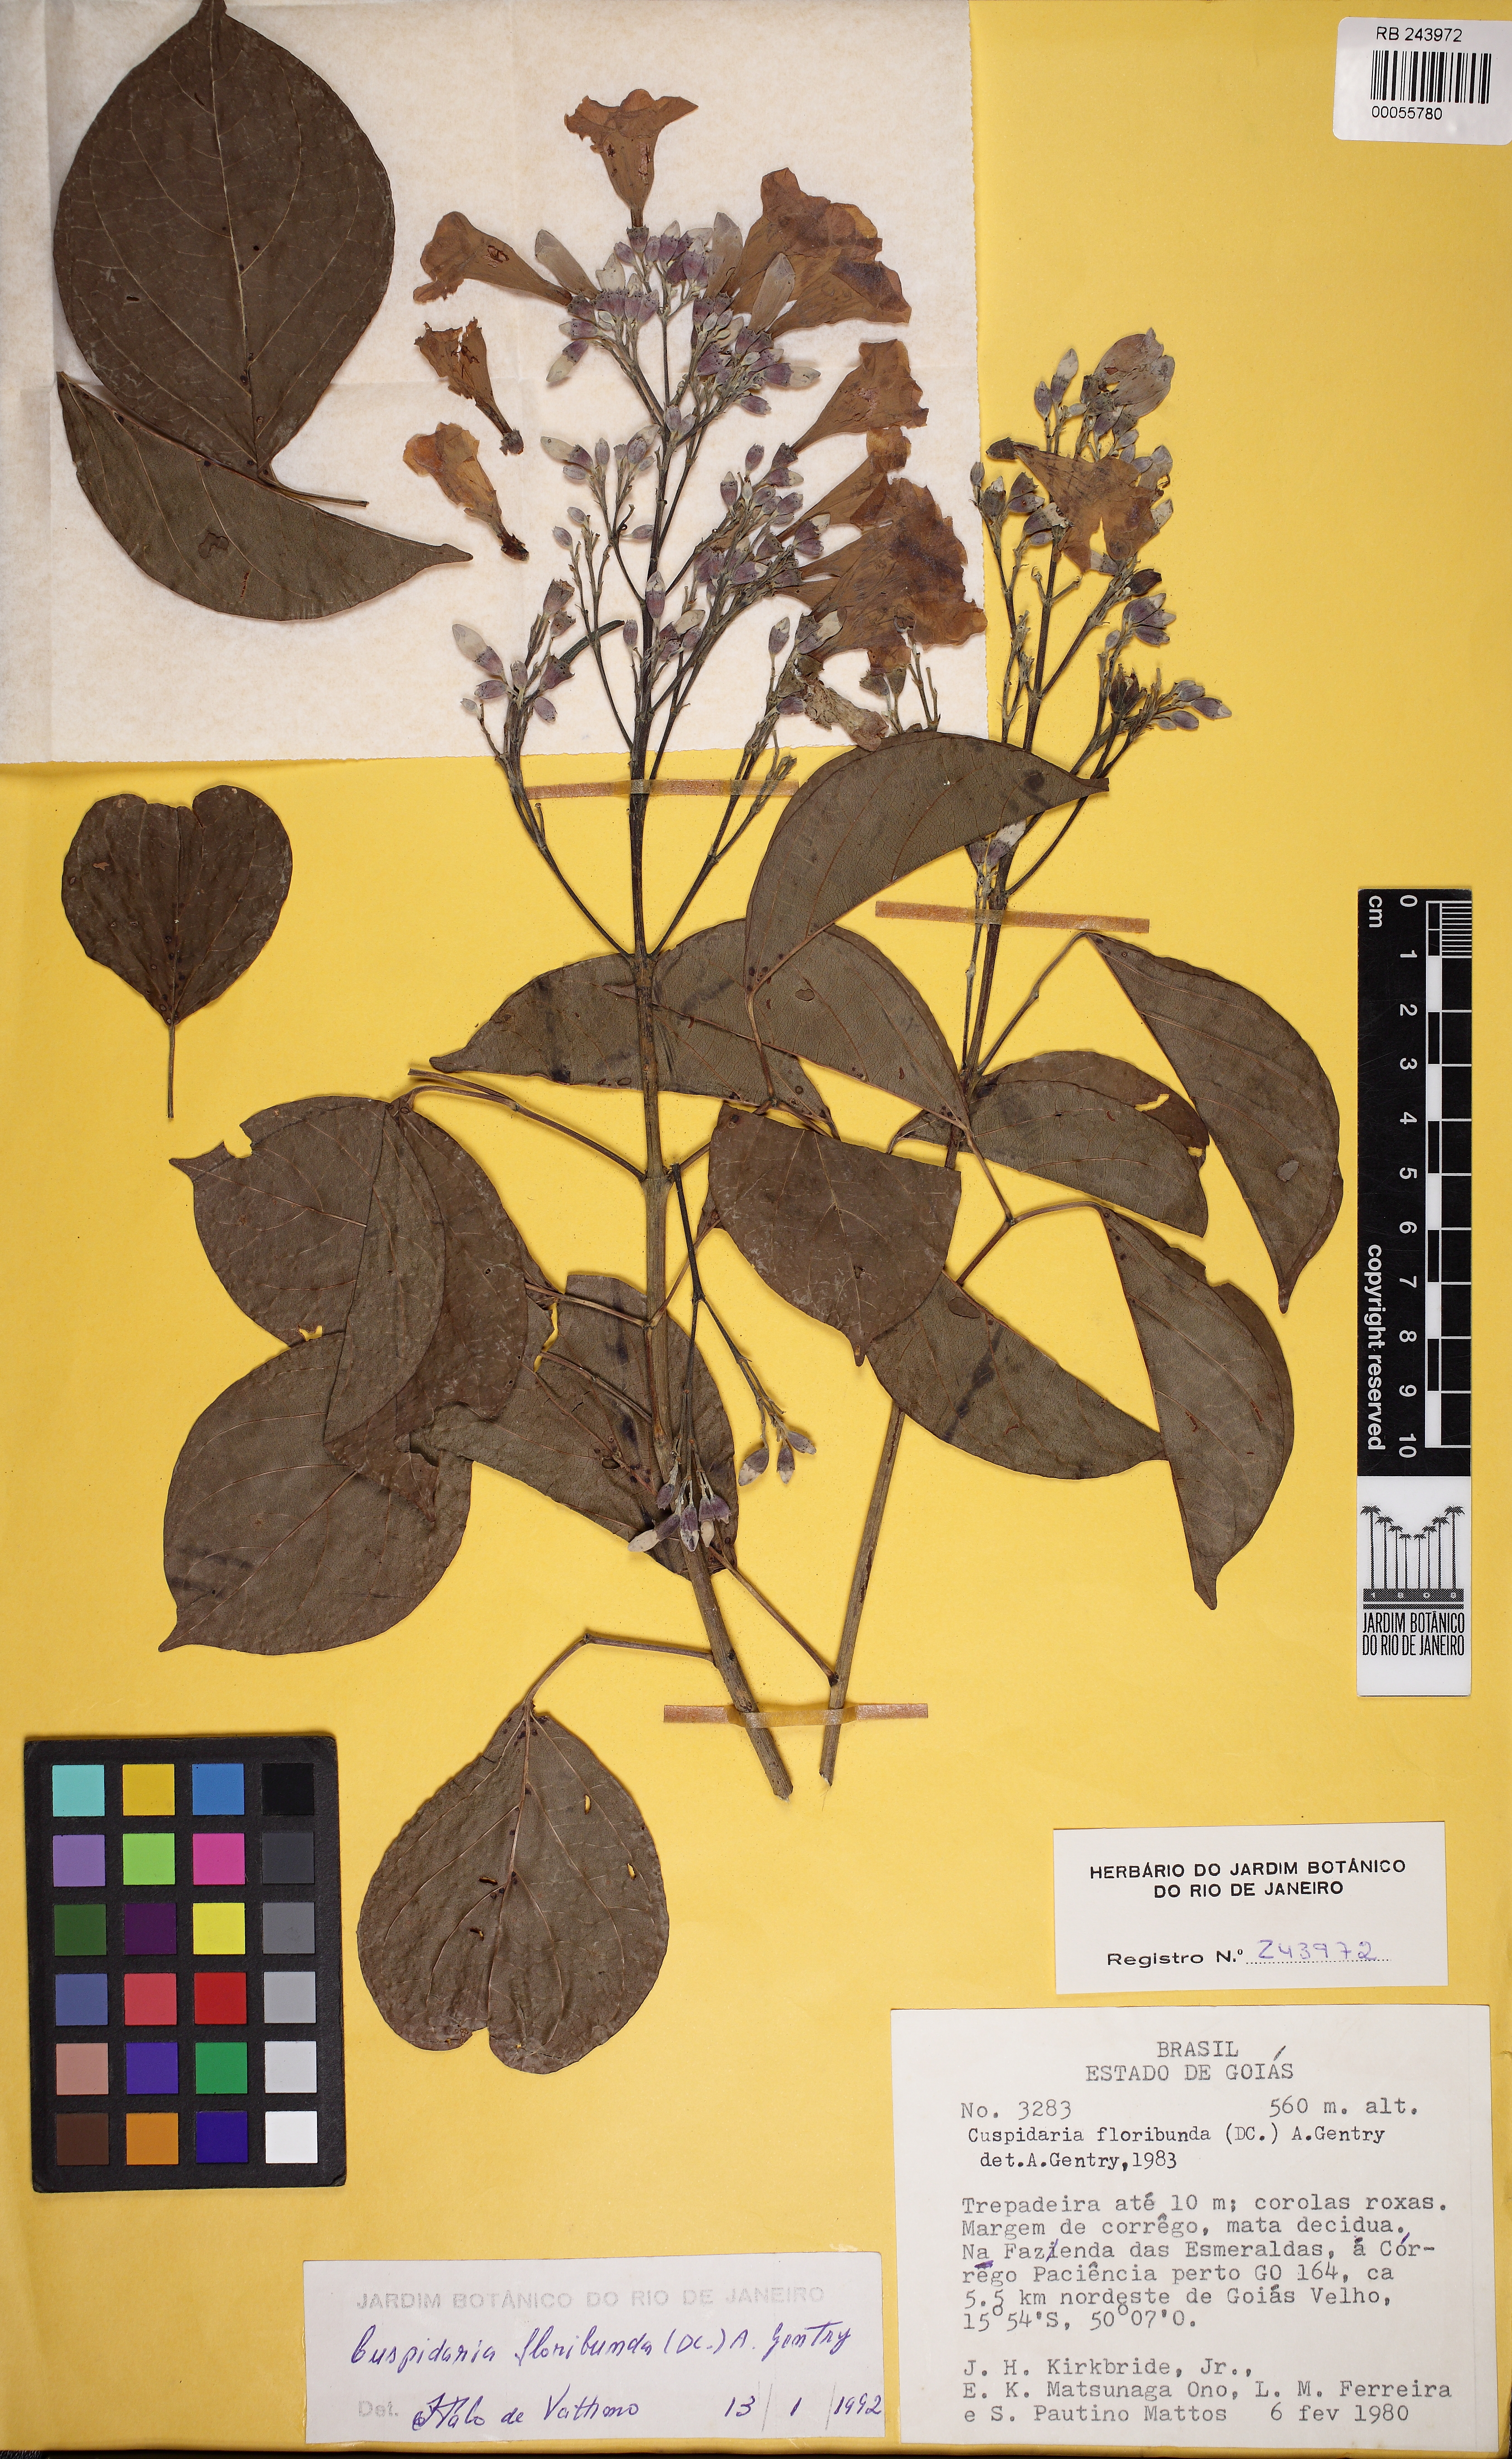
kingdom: Plantae
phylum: Tracheophyta
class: Magnoliopsida
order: Lamiales
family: Bignoniaceae
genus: Cuspidaria
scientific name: Cuspidaria floribunda
